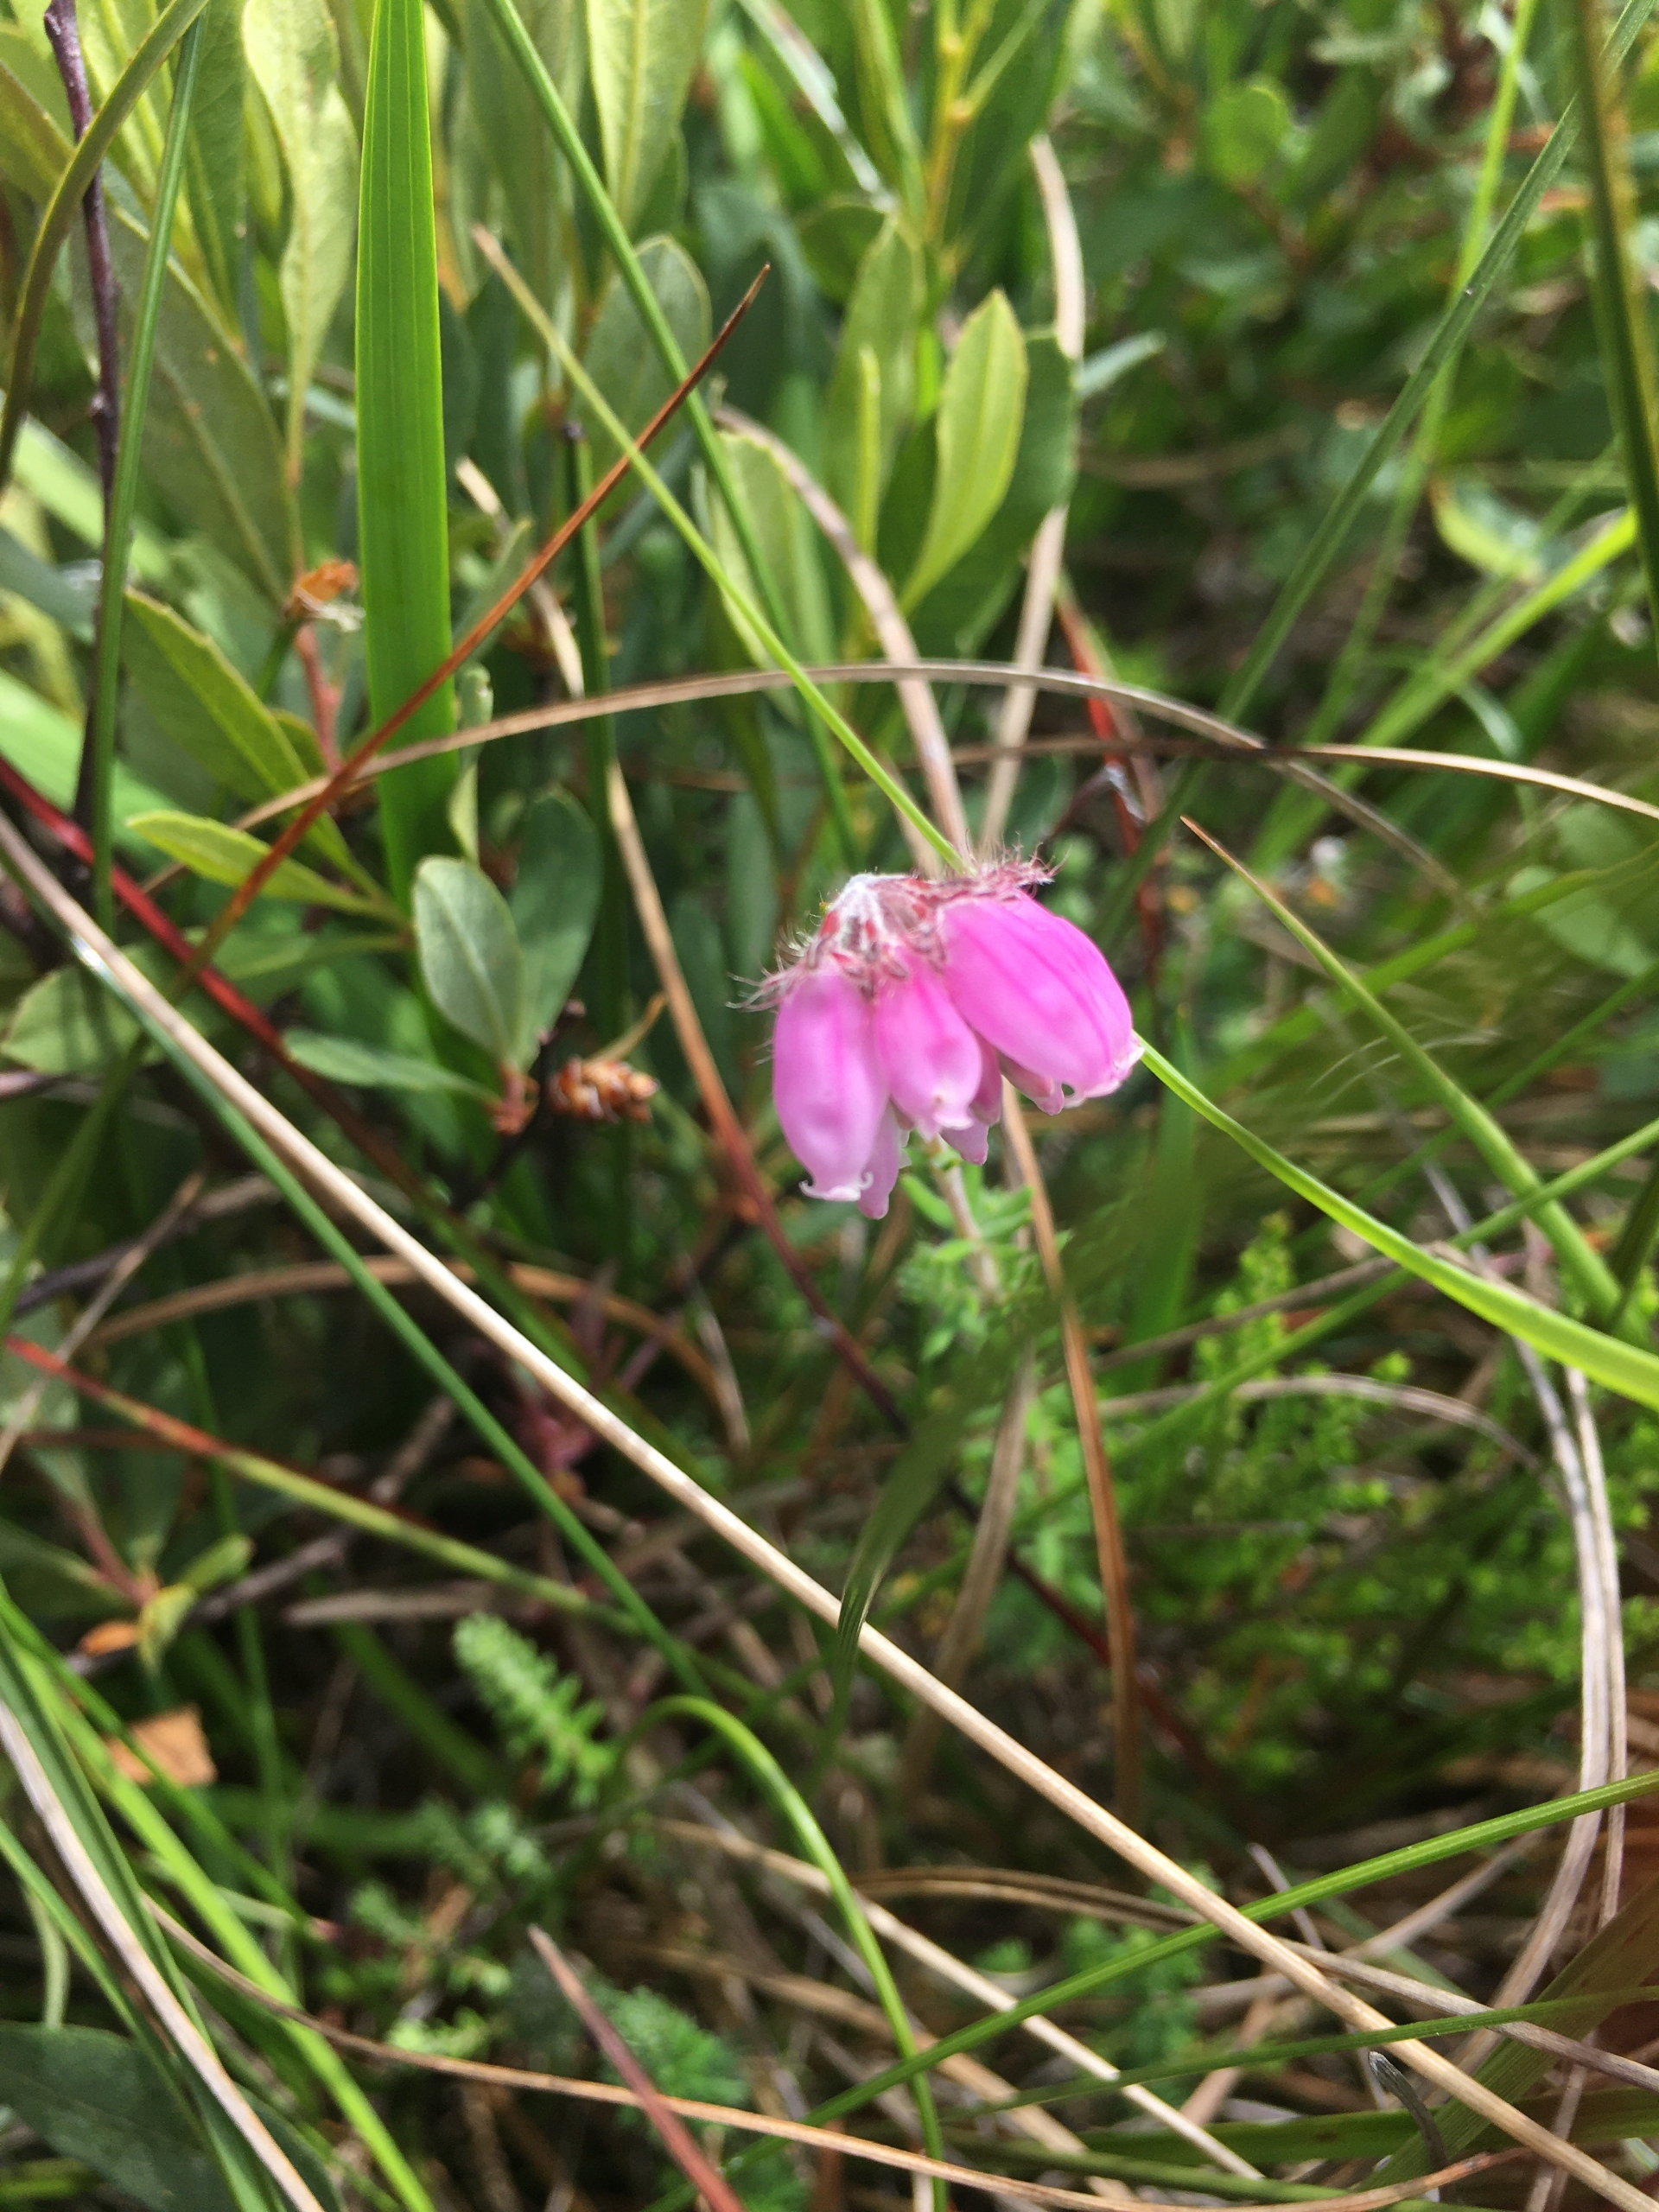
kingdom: Plantae
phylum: Tracheophyta
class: Magnoliopsida
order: Ericales
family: Ericaceae
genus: Erica
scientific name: Erica tetralix
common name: Klokkelyng
